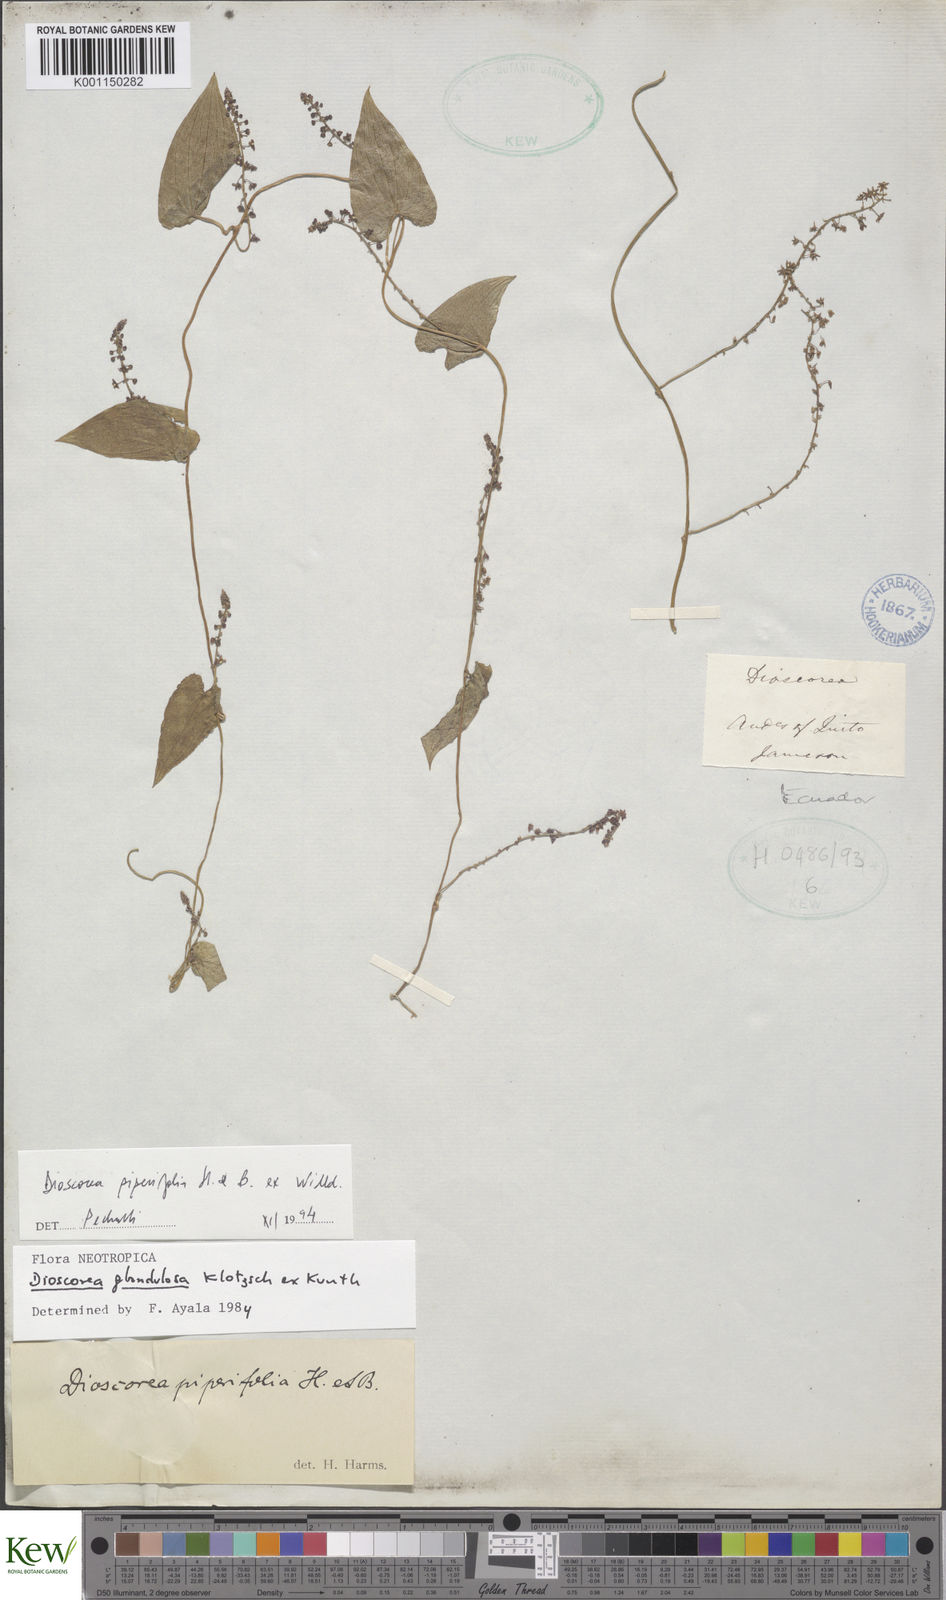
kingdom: Plantae
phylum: Tracheophyta
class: Liliopsida
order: Dioscoreales
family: Dioscoreaceae
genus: Dioscorea
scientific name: Dioscorea piperifolia
